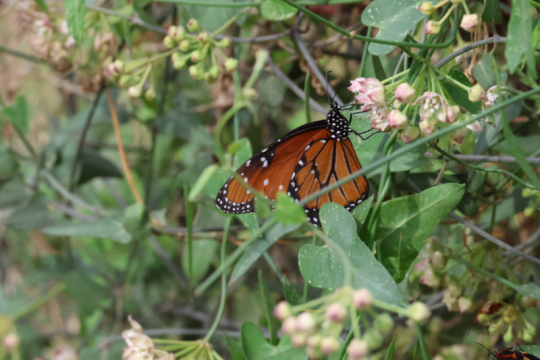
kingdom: Animalia
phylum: Arthropoda
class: Insecta
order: Lepidoptera
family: Nymphalidae
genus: Danaus
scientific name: Danaus gilippus
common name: Queen
